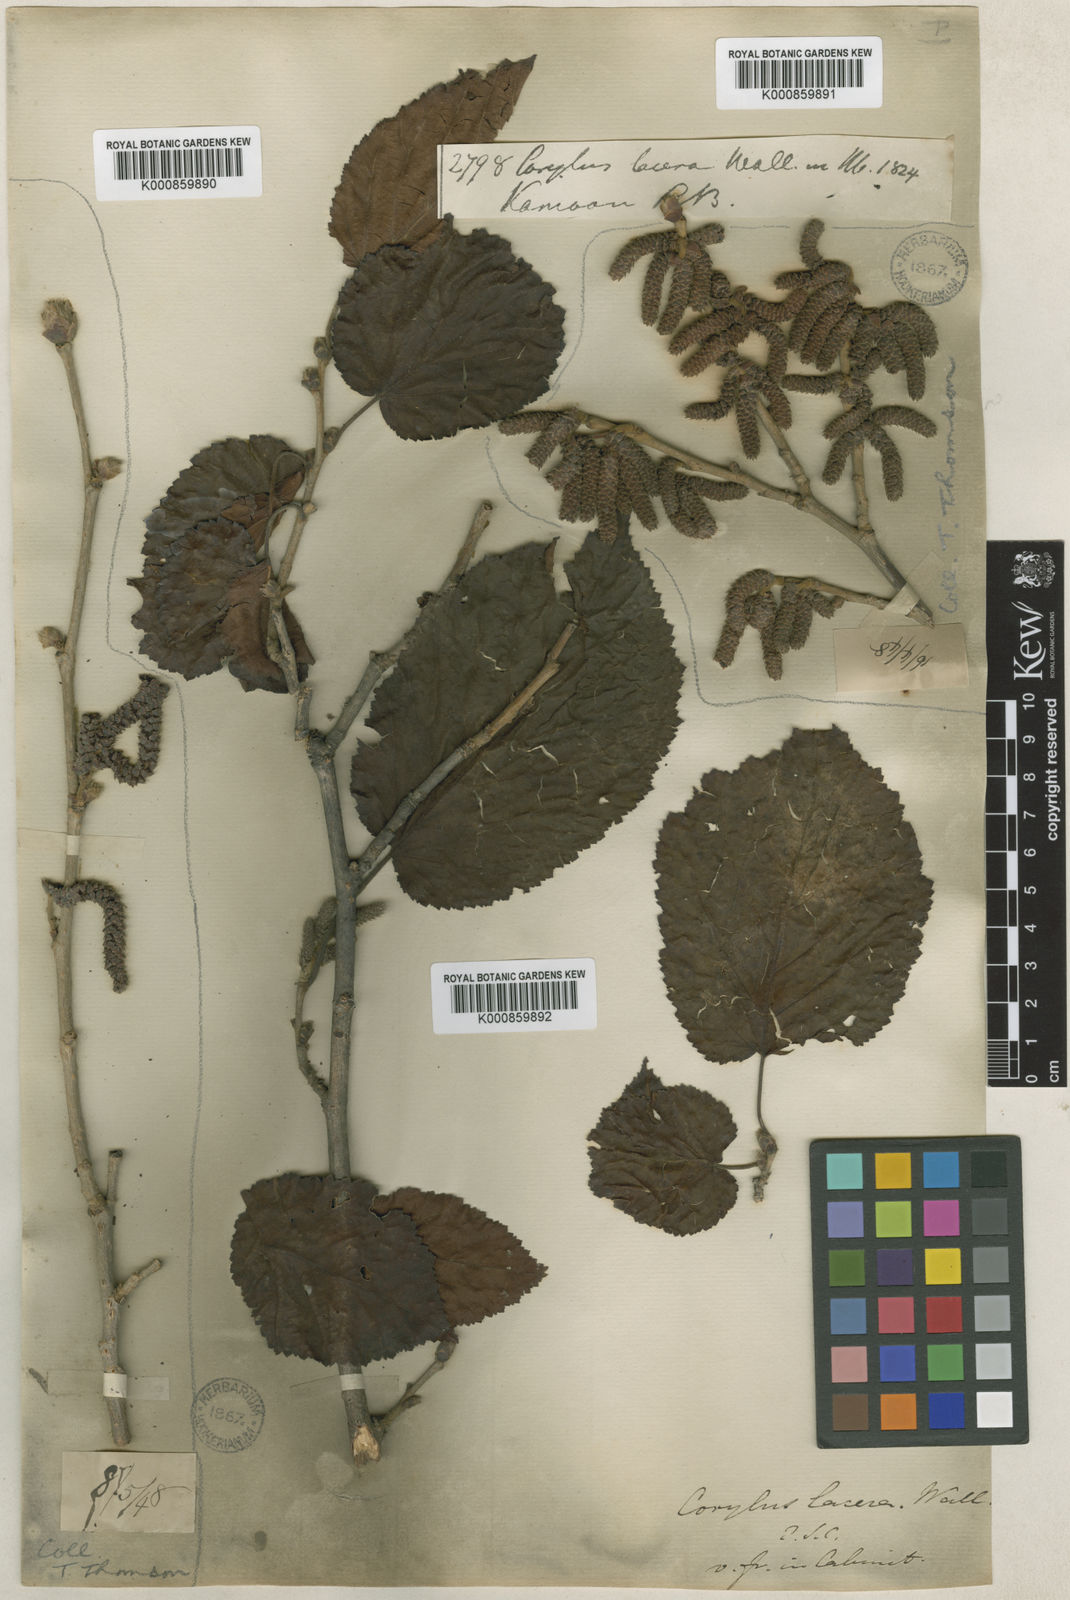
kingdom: Plantae
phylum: Tracheophyta
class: Magnoliopsida
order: Fagales
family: Betulaceae
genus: Corylus
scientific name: Corylus jacquemontii
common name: Indian tree hazel
